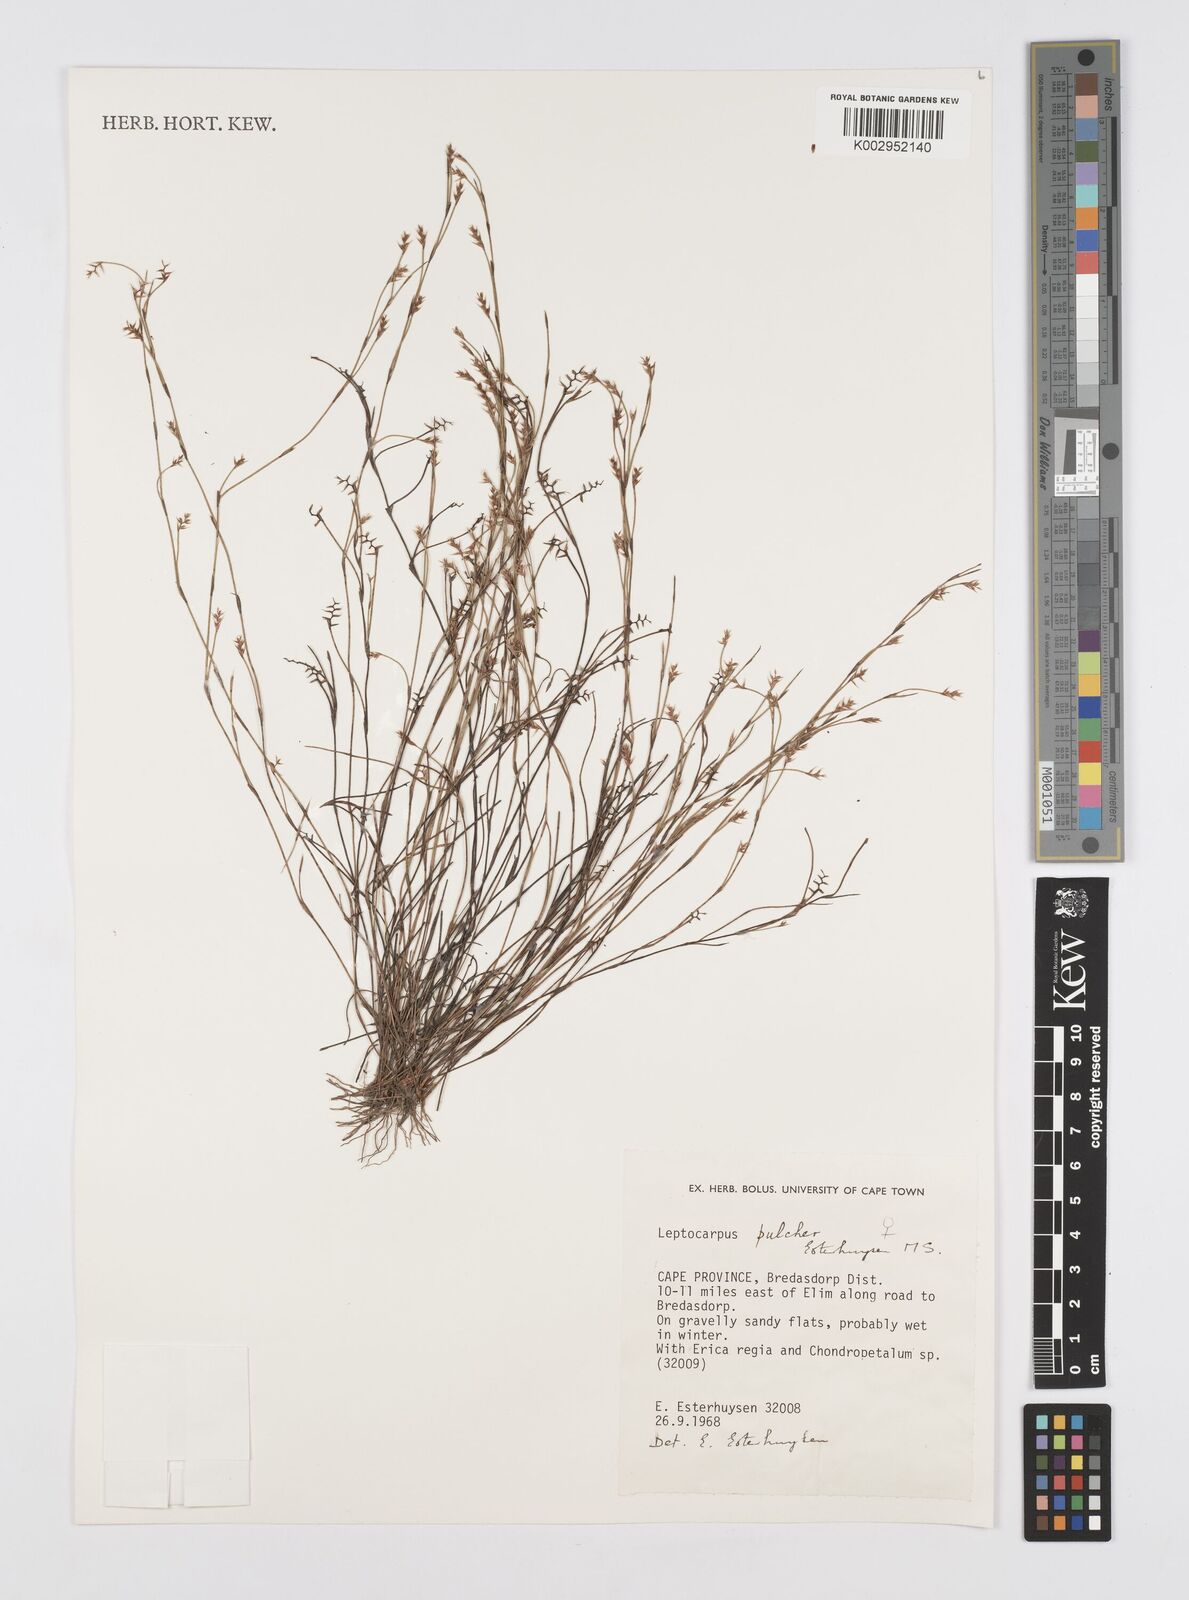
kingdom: Plantae
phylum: Tracheophyta
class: Liliopsida
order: Poales
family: Restionaceae
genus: Restio
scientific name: Restio pulcher
